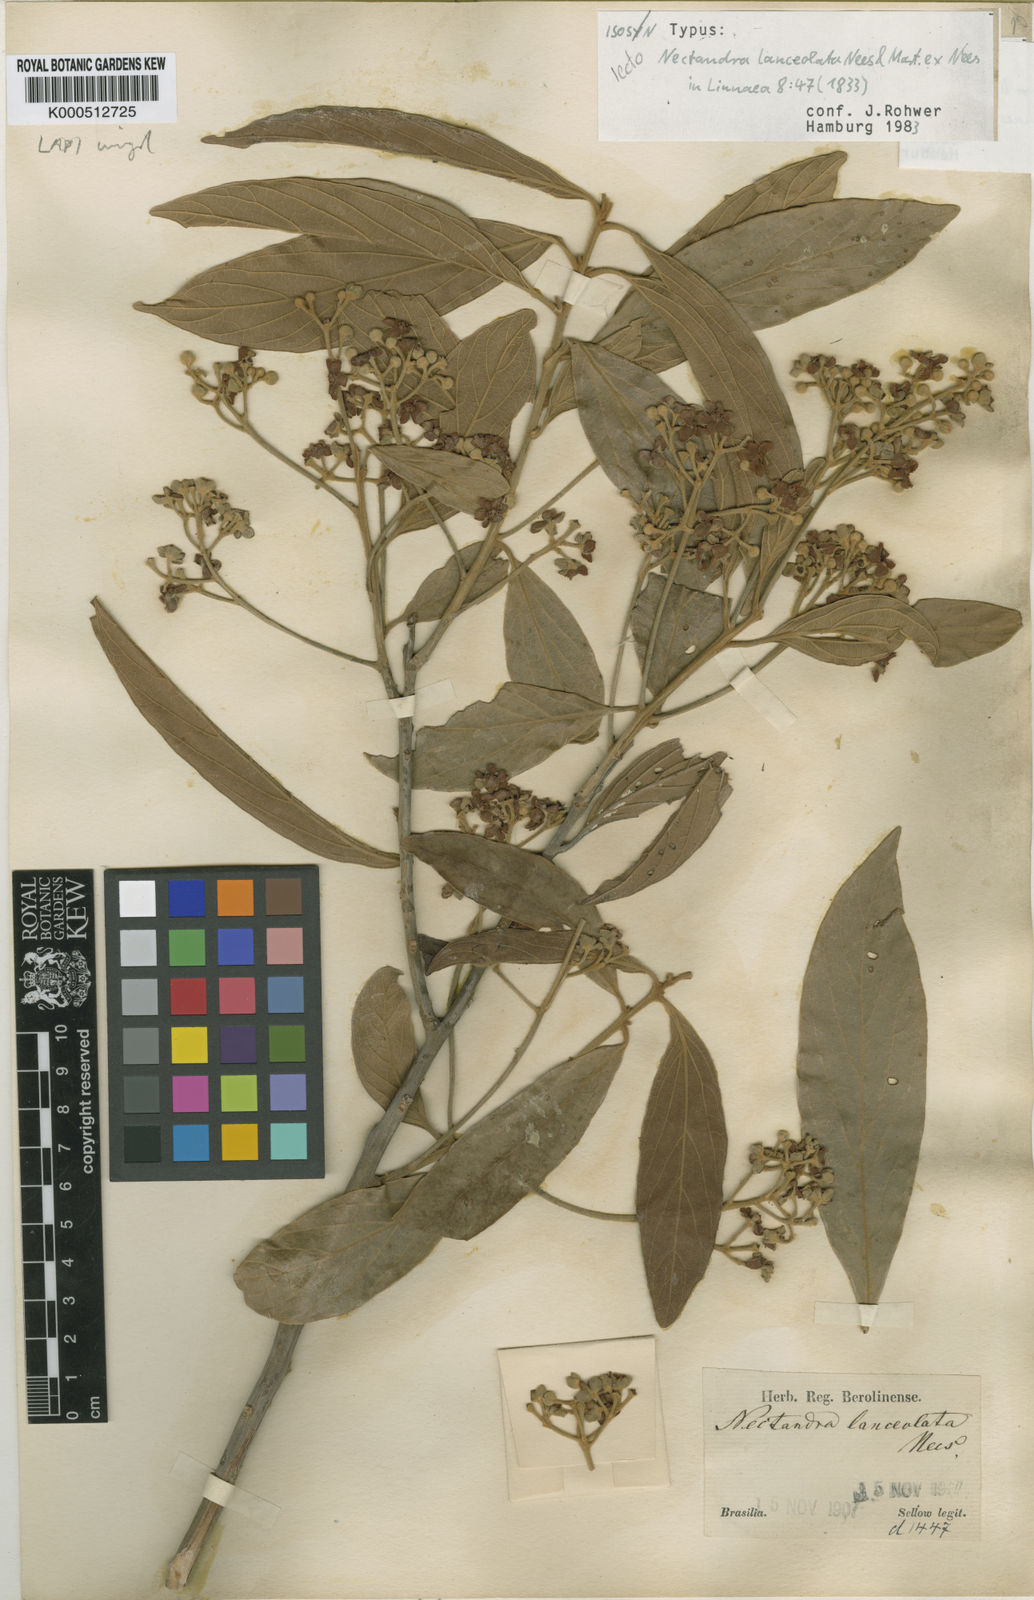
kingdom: Plantae
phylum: Tracheophyta
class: Magnoliopsida
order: Laurales
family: Lauraceae
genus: Nectandra
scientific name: Nectandra lanceolata
